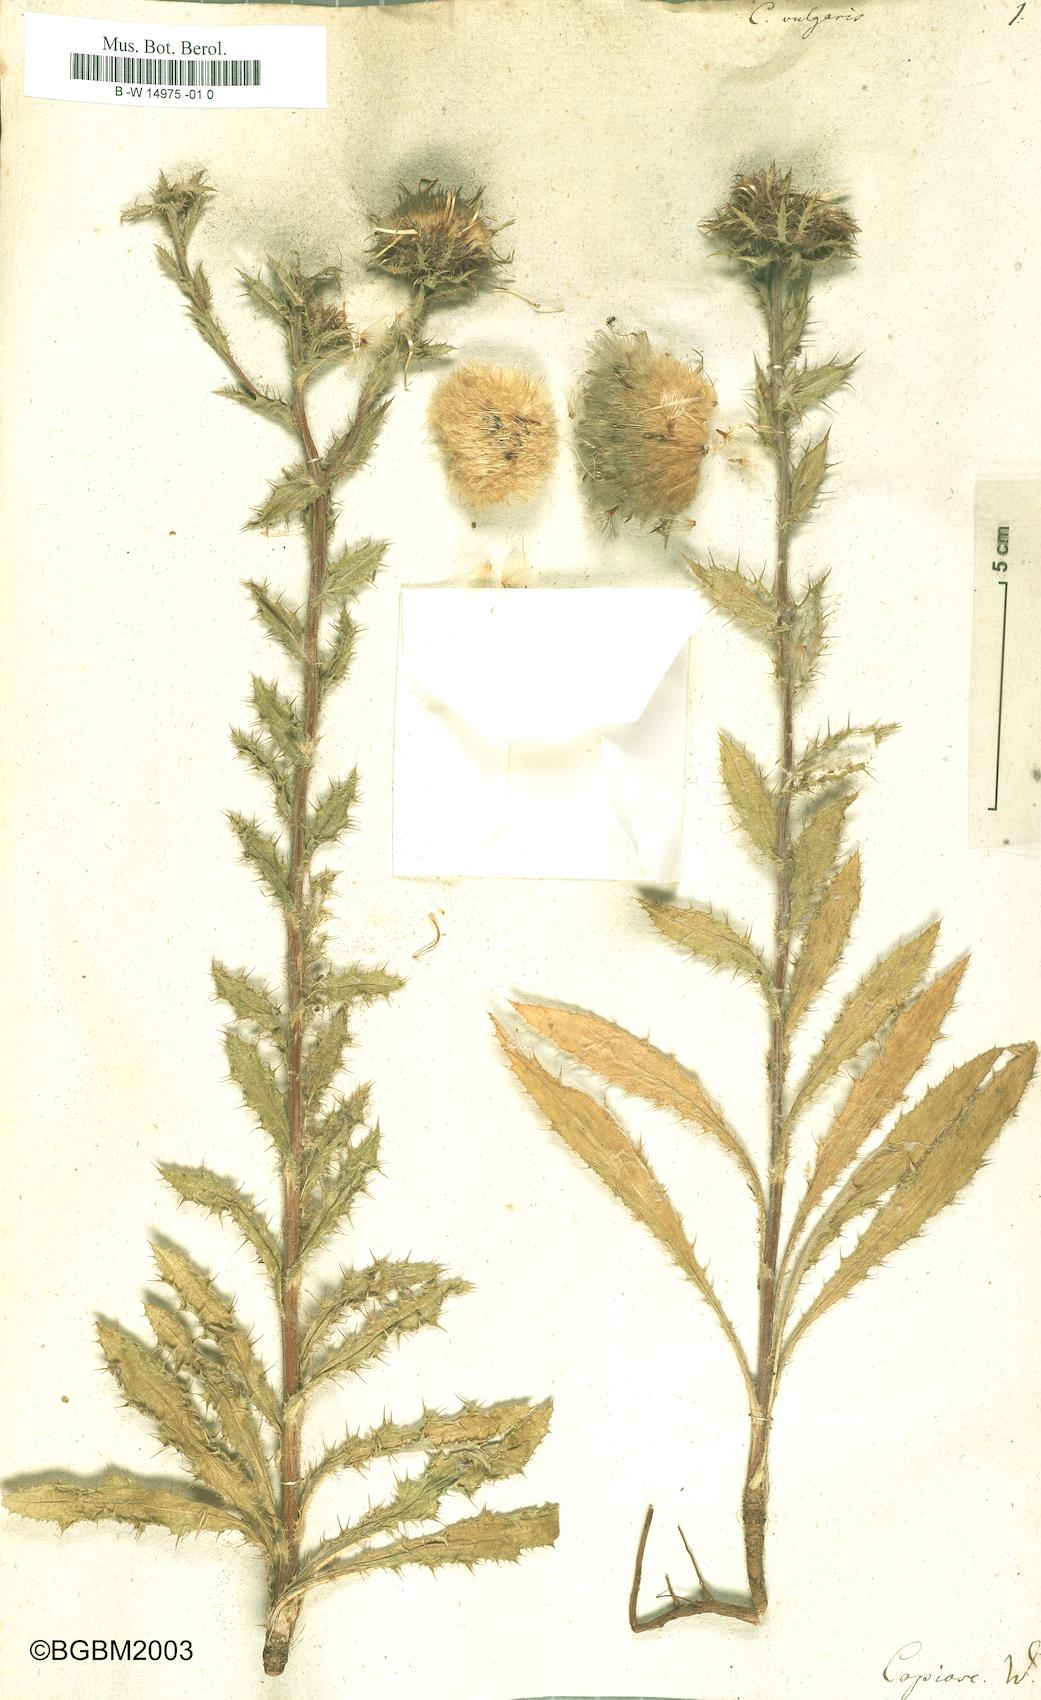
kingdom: Plantae
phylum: Tracheophyta
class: Magnoliopsida
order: Asterales
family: Asteraceae
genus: Carlina
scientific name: Carlina vulgaris
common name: Carline thistle
